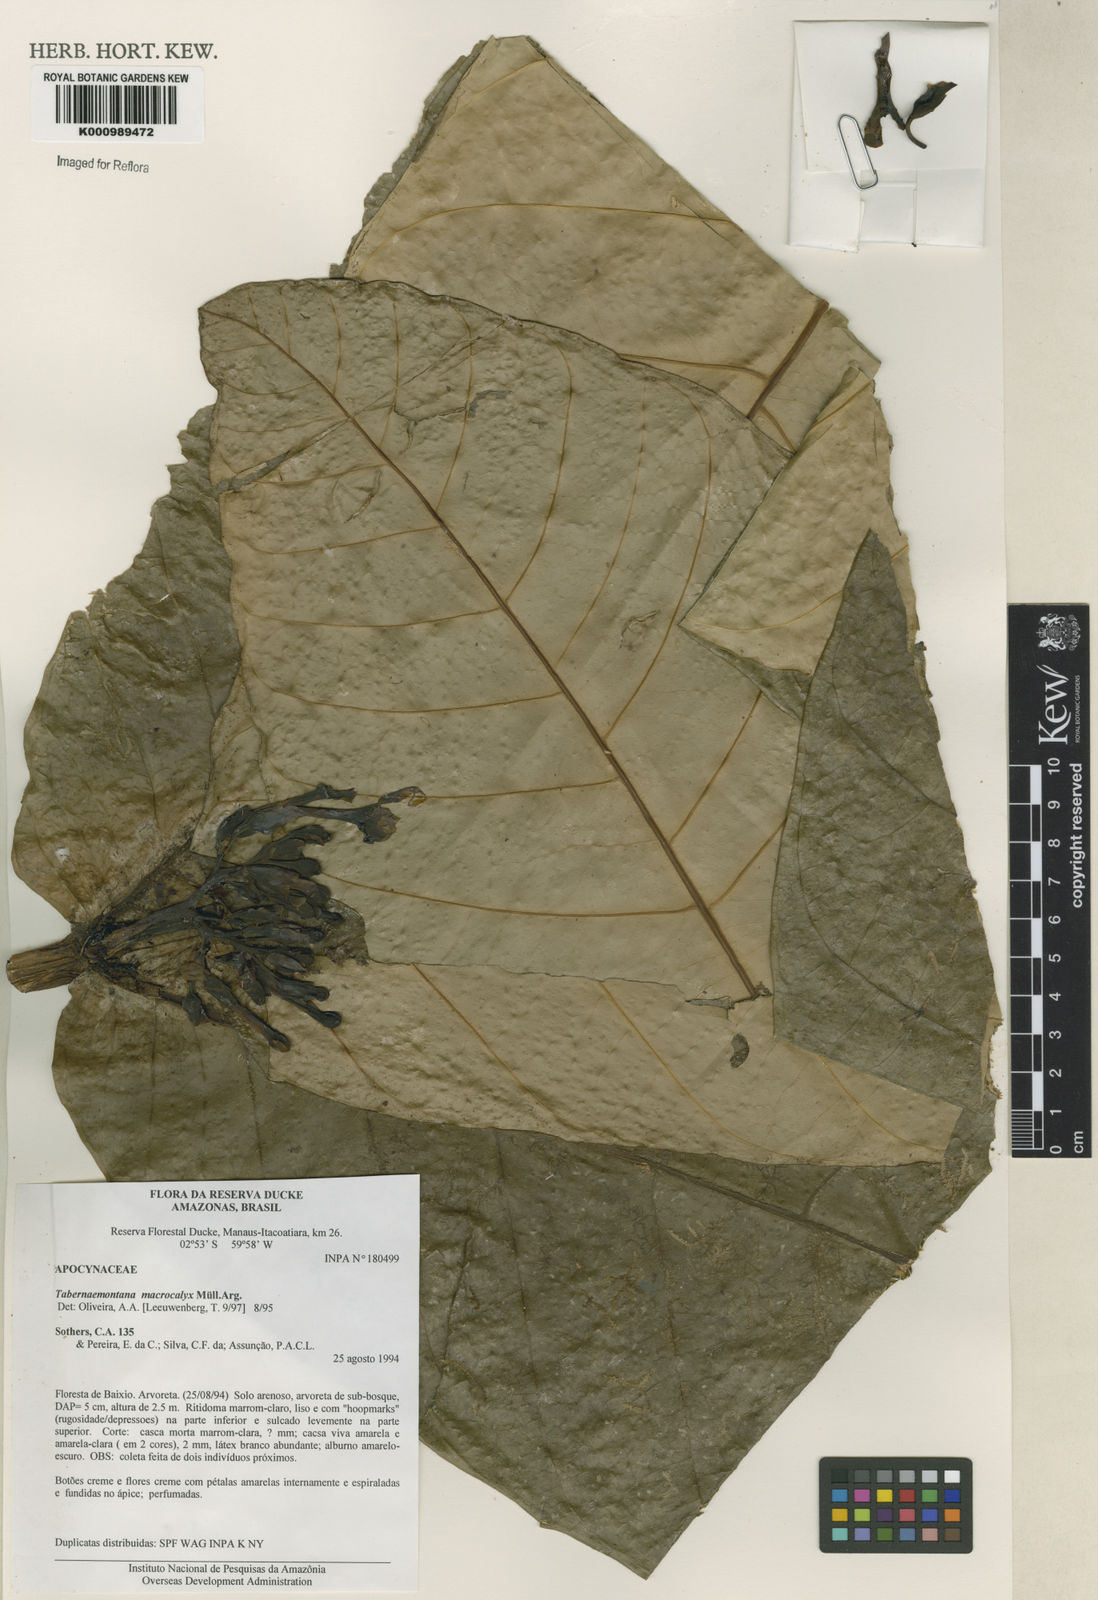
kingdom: Plantae
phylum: Tracheophyta
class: Magnoliopsida
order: Gentianales
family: Apocynaceae
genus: Tabernaemontana
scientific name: Tabernaemontana
